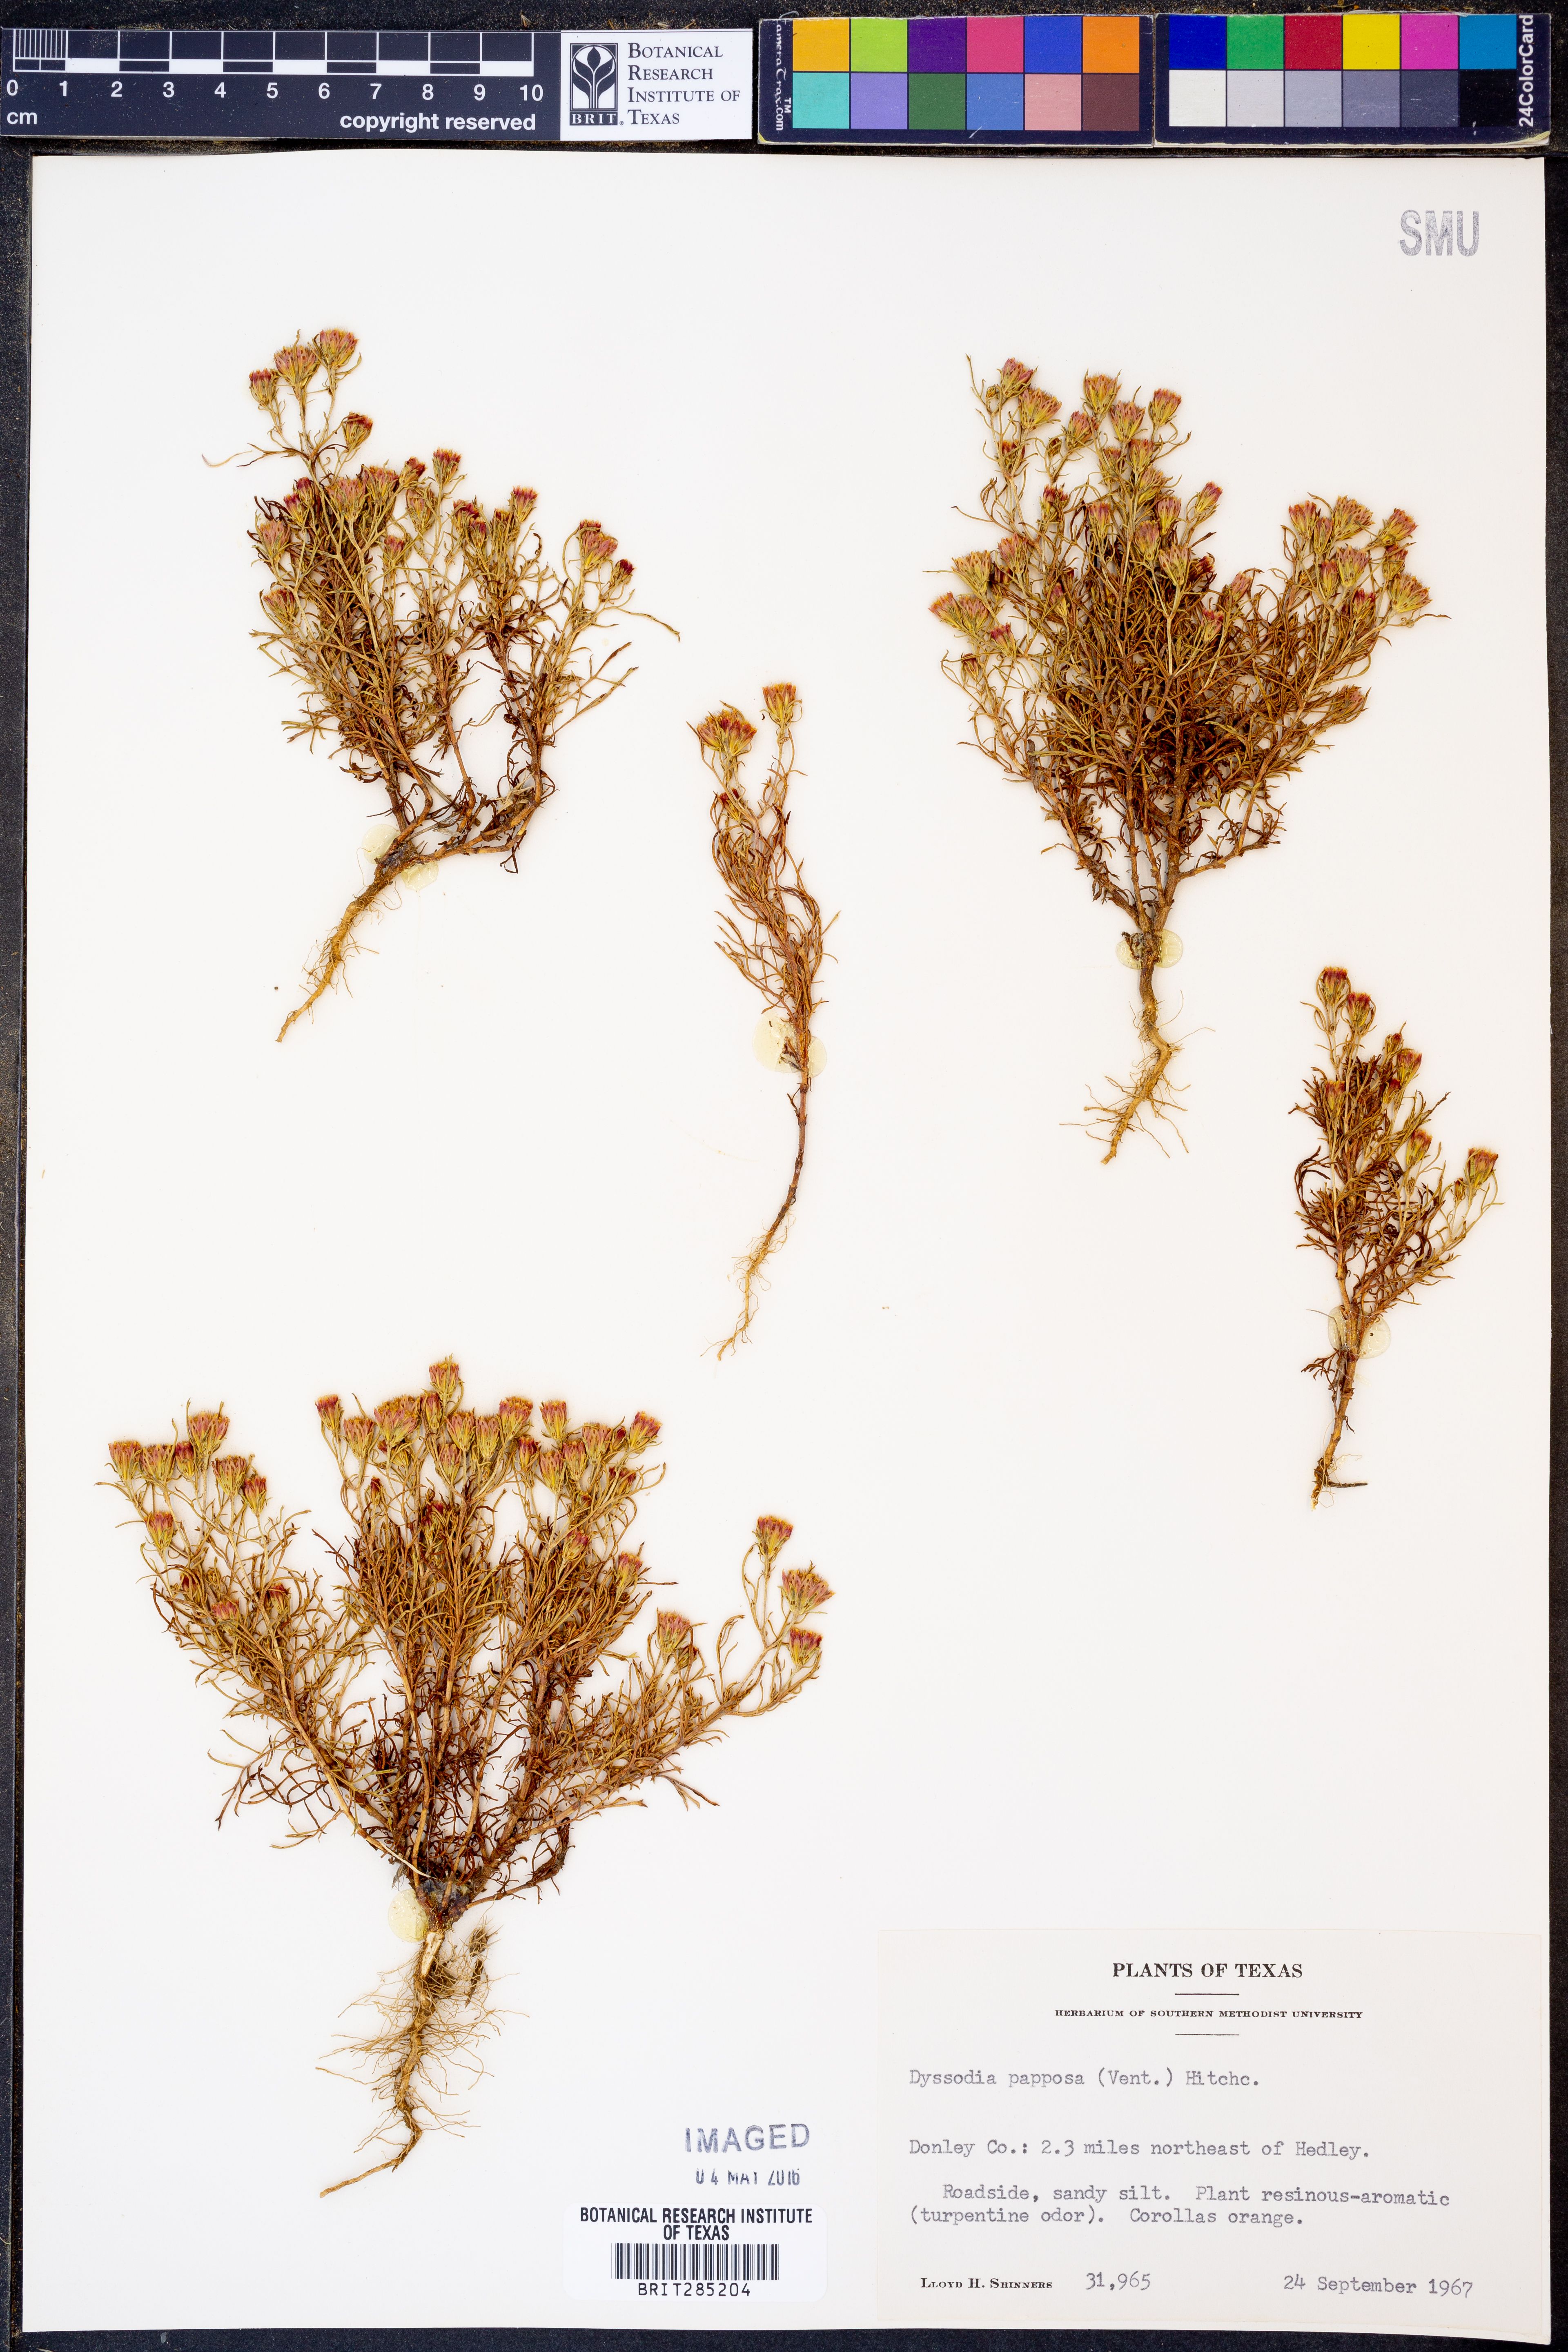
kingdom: Plantae
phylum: Tracheophyta
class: Magnoliopsida
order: Asterales
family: Asteraceae
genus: Dyssodia
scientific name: Dyssodia papposa
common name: Dogweed
